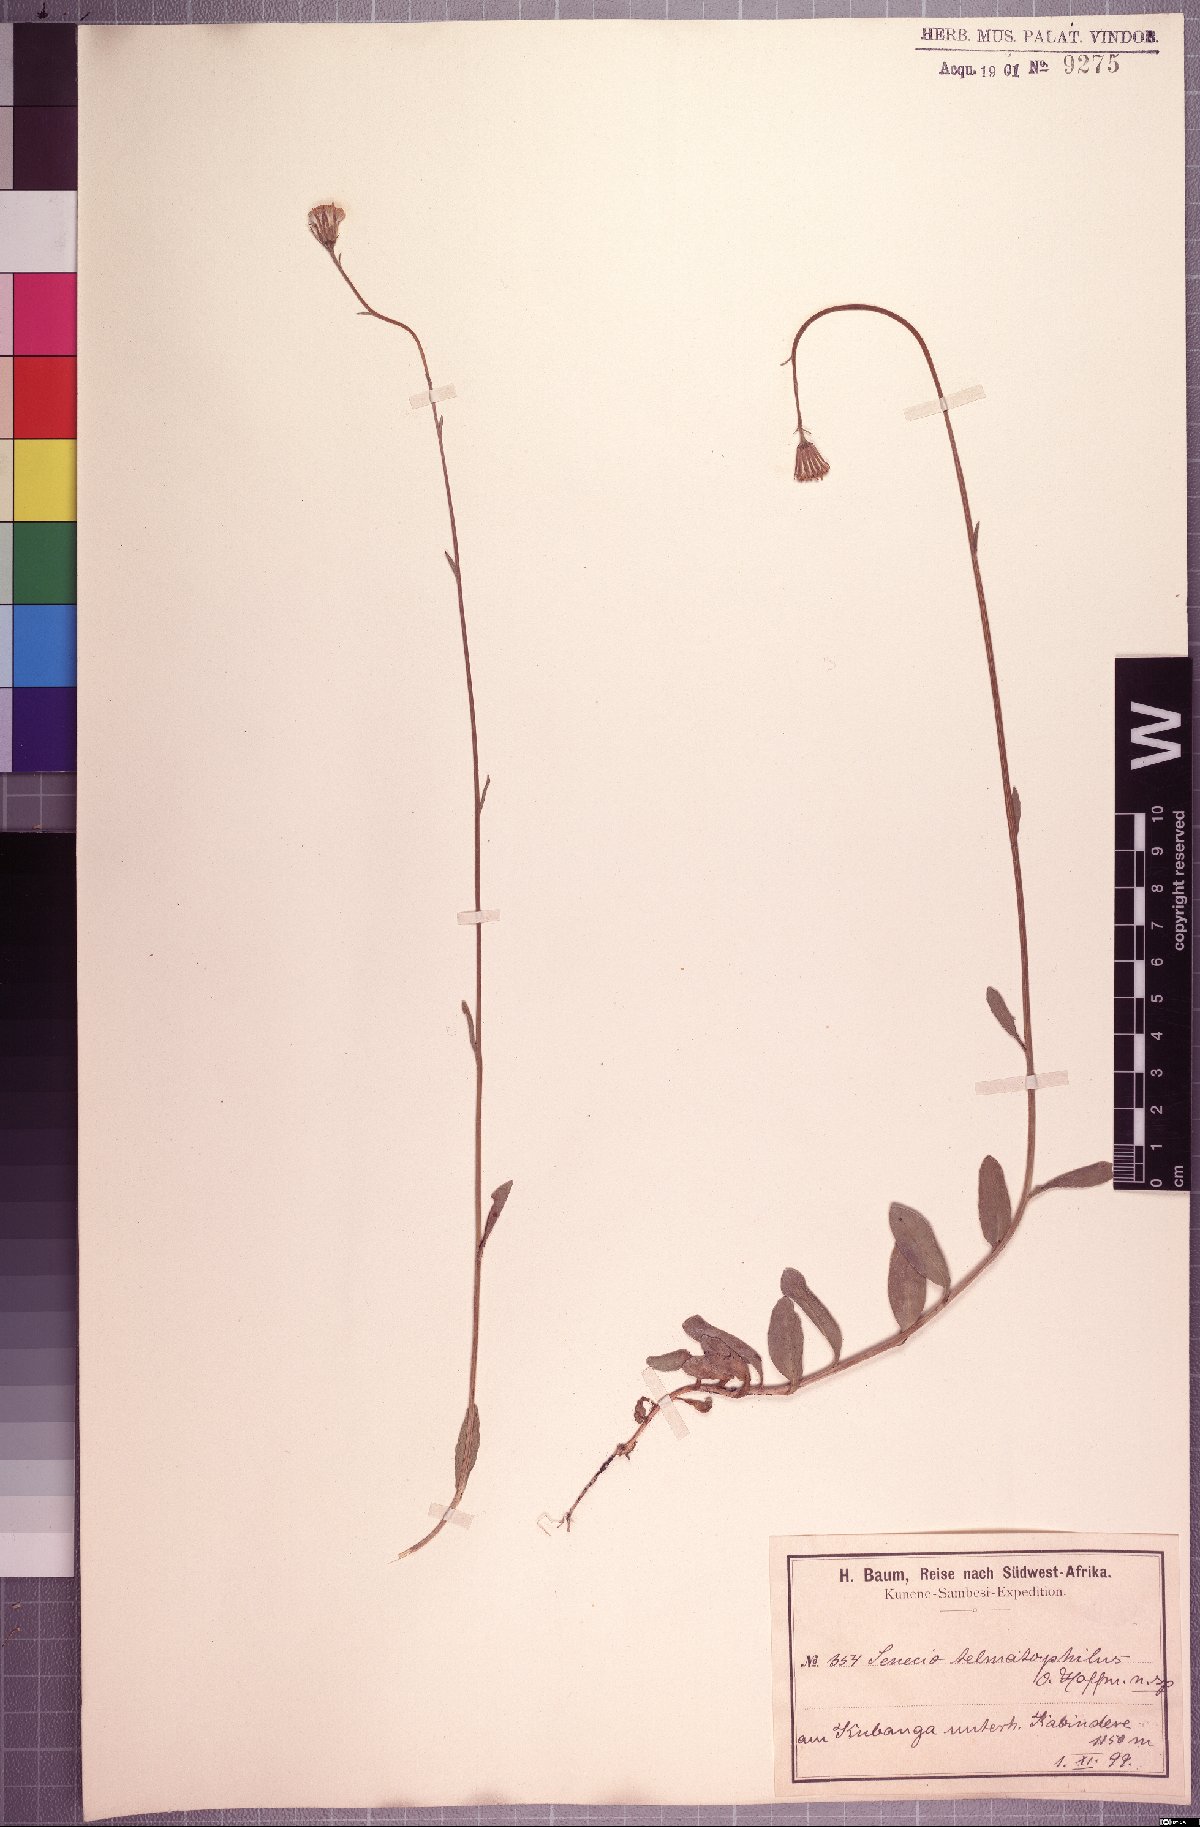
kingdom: Plantae
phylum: Tracheophyta
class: Magnoliopsida
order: Asterales
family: Asteraceae
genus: Crassocephalum
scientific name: Crassocephalum uvens
